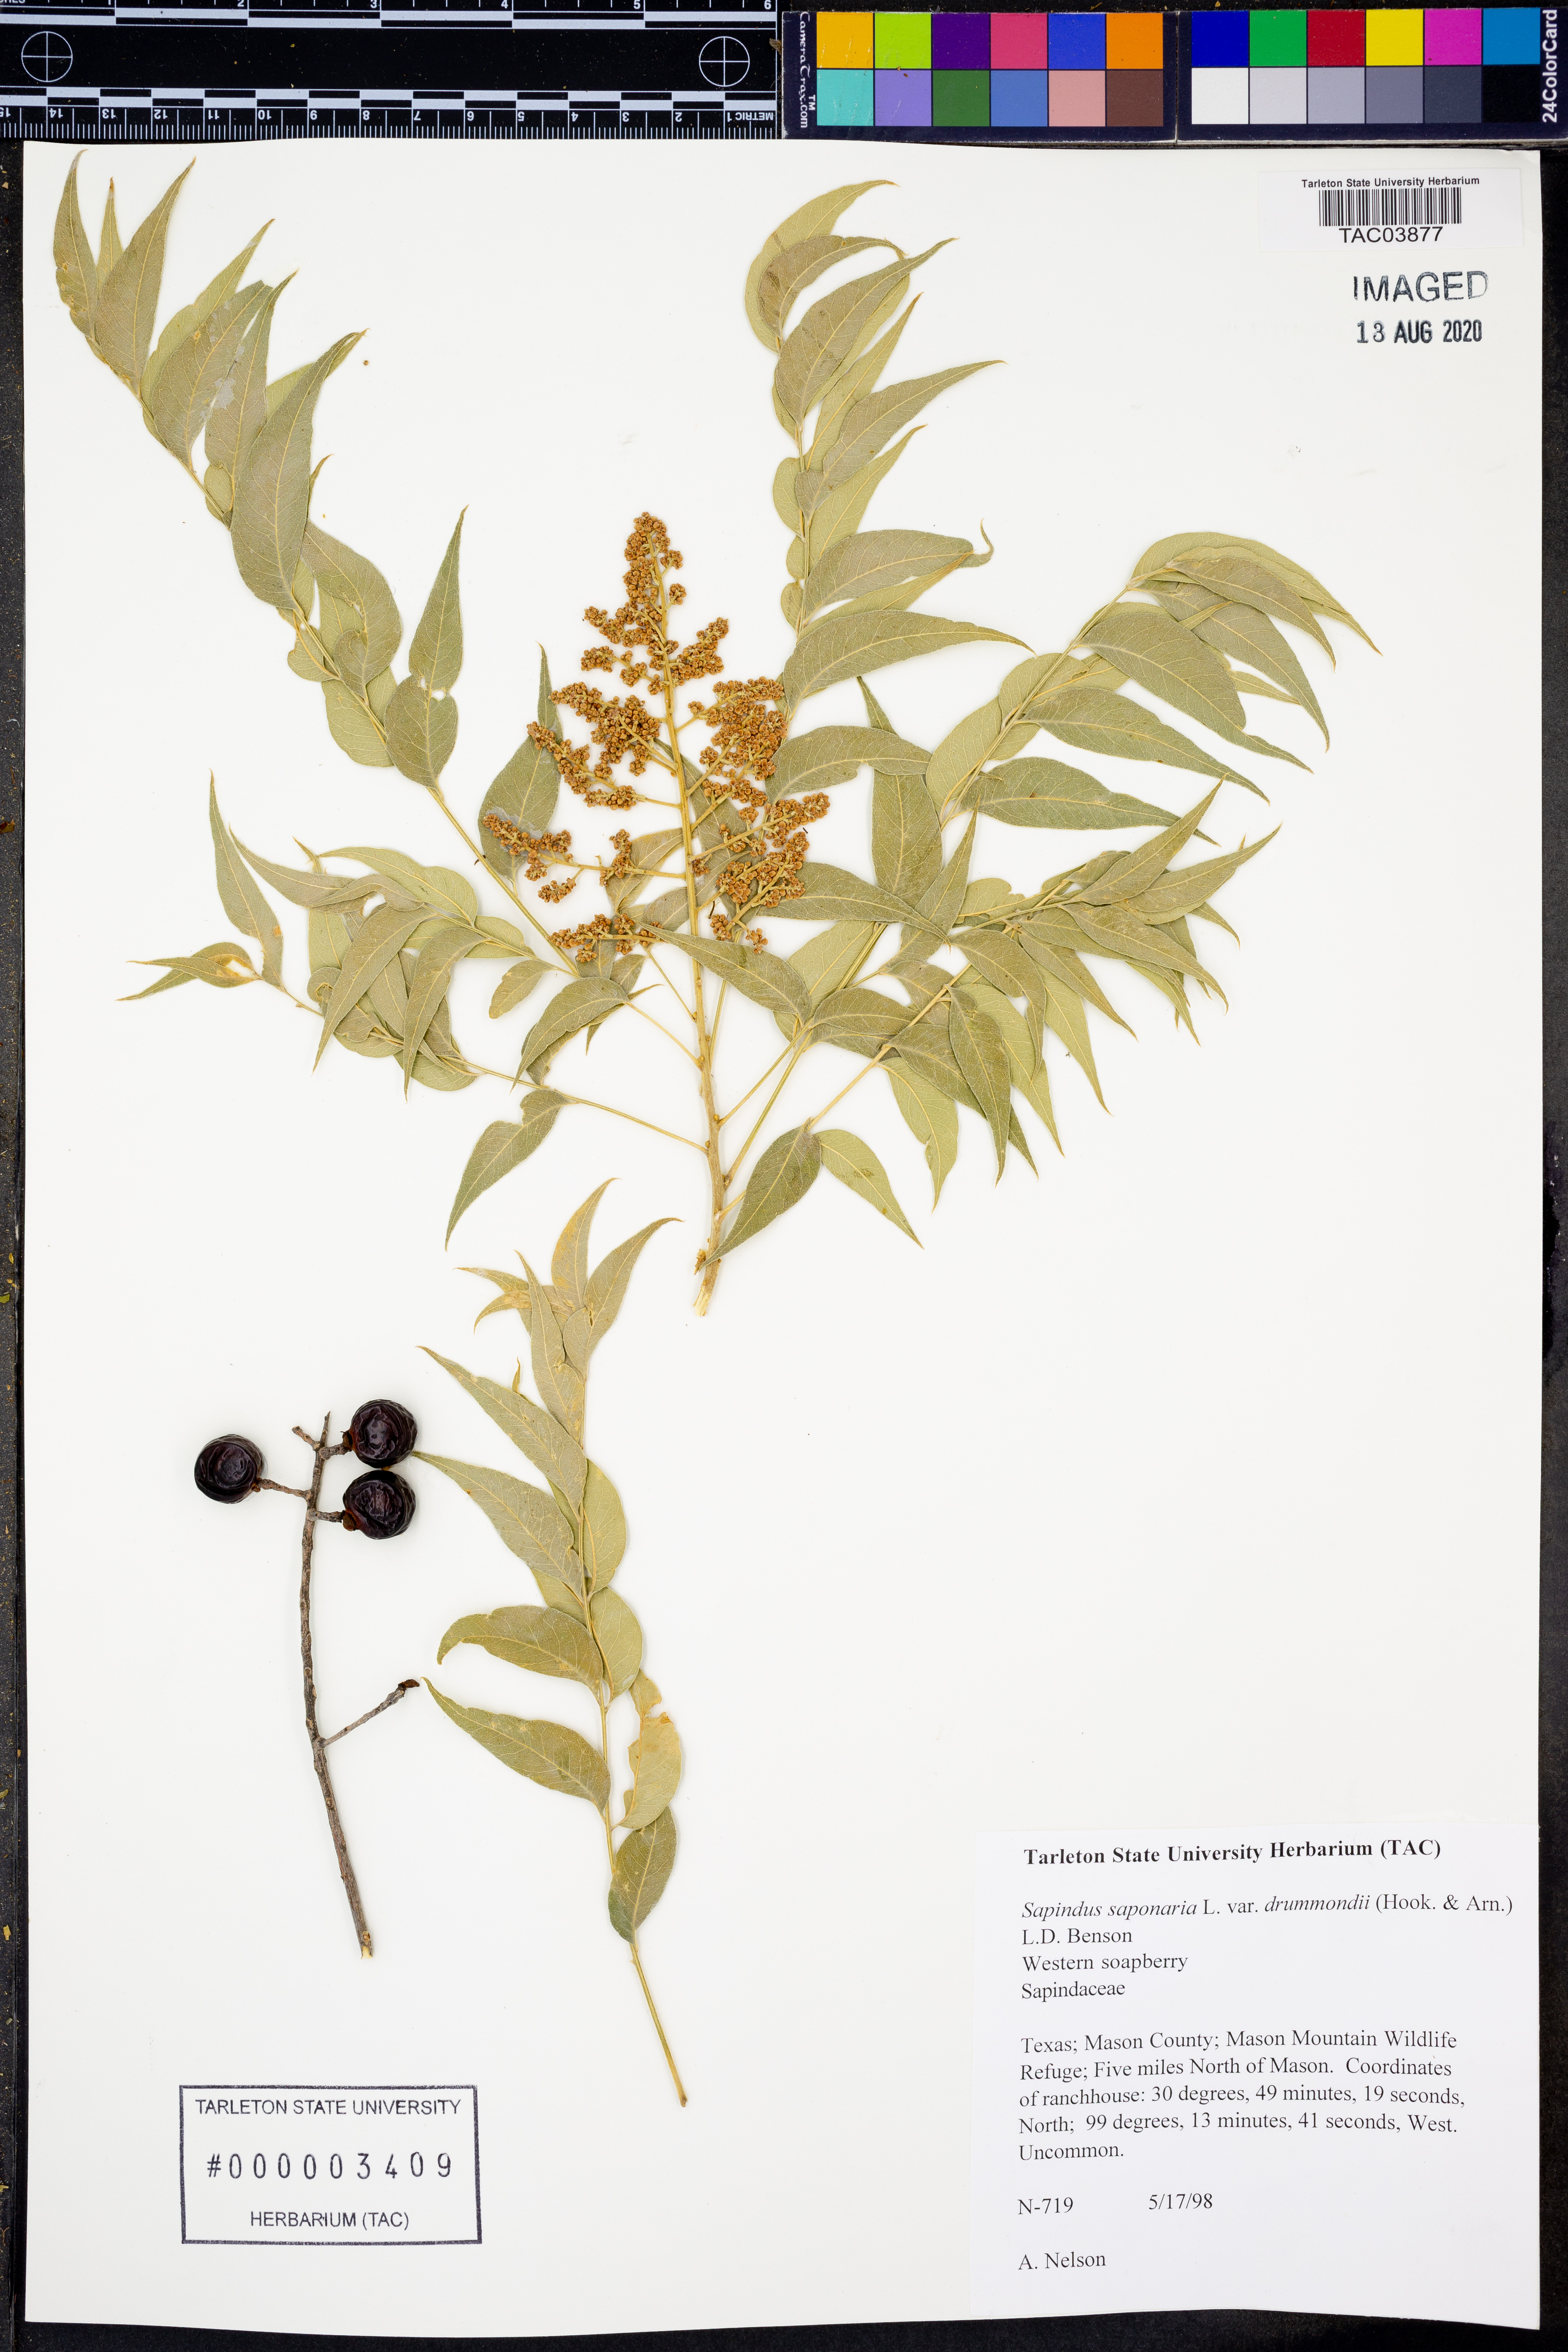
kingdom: Plantae
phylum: Tracheophyta
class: Magnoliopsida
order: Sapindales
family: Sapindaceae
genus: Sapindus
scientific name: Sapindus drummondii
